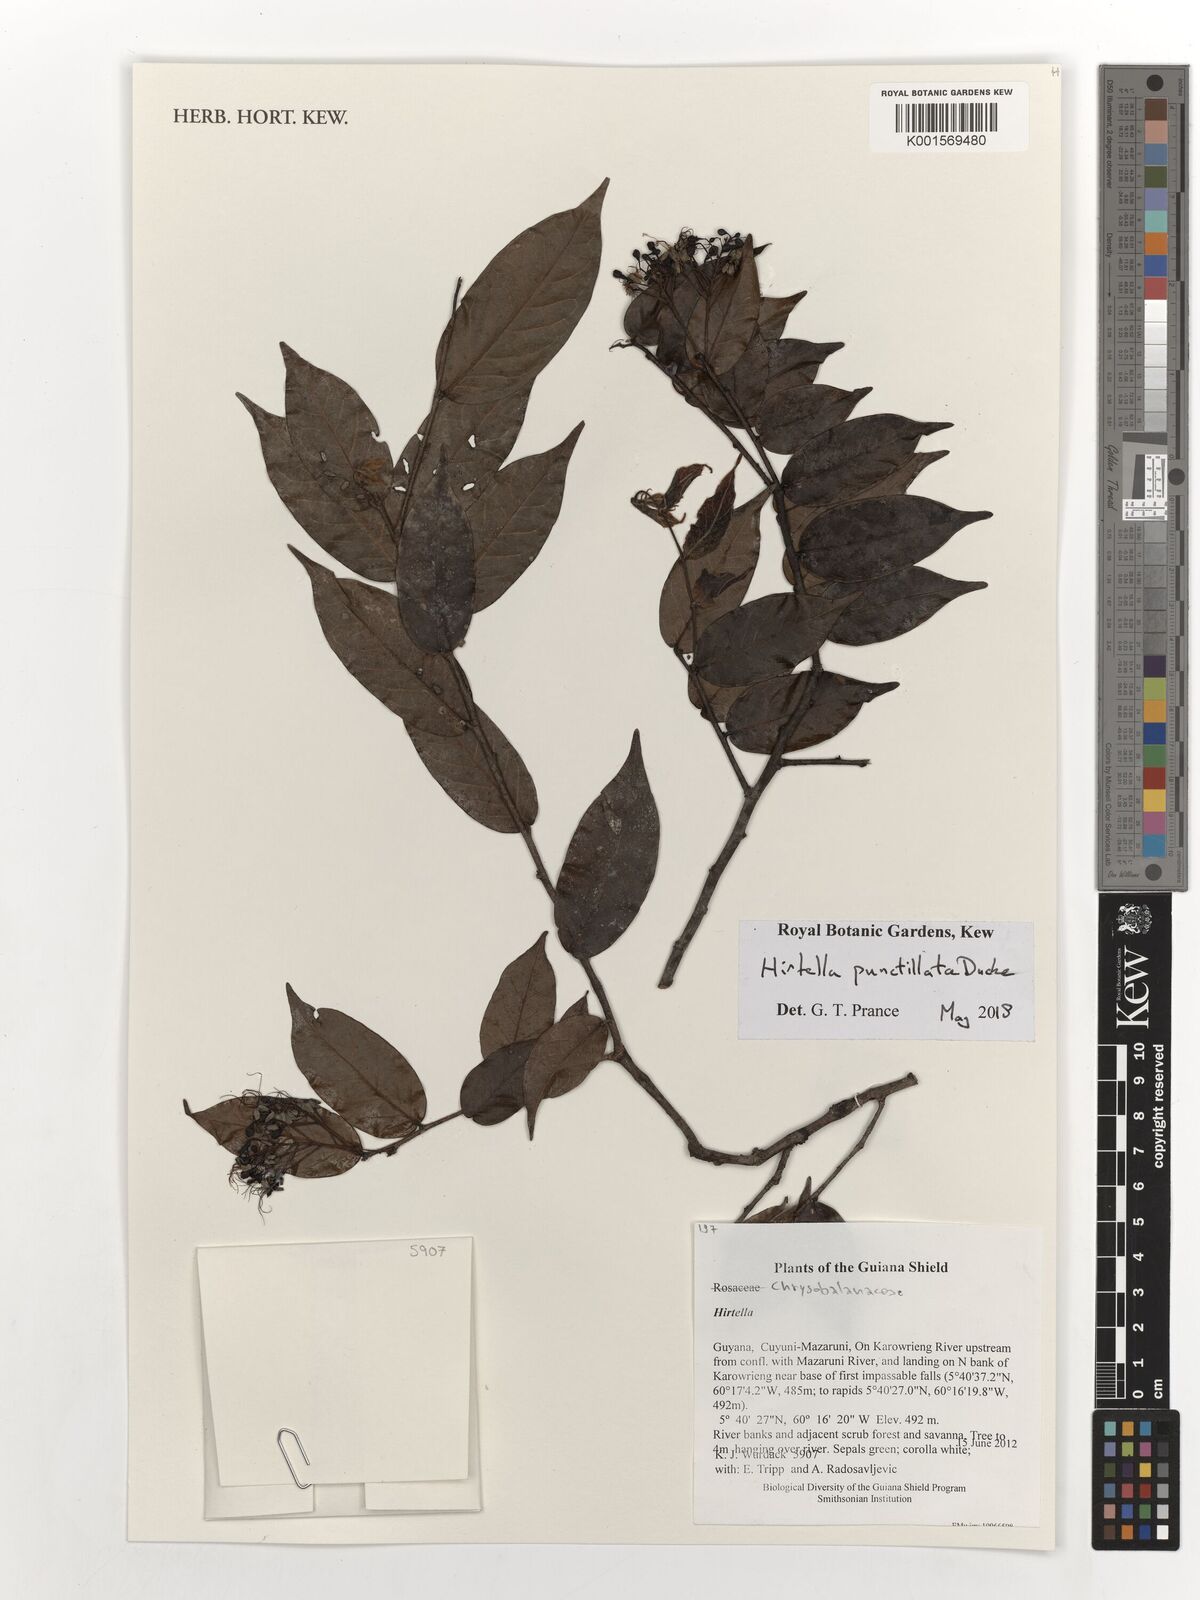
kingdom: Plantae
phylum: Tracheophyta
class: Magnoliopsida
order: Malpighiales
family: Chrysobalanaceae
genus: Hirtella
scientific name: Hirtella punctillata
